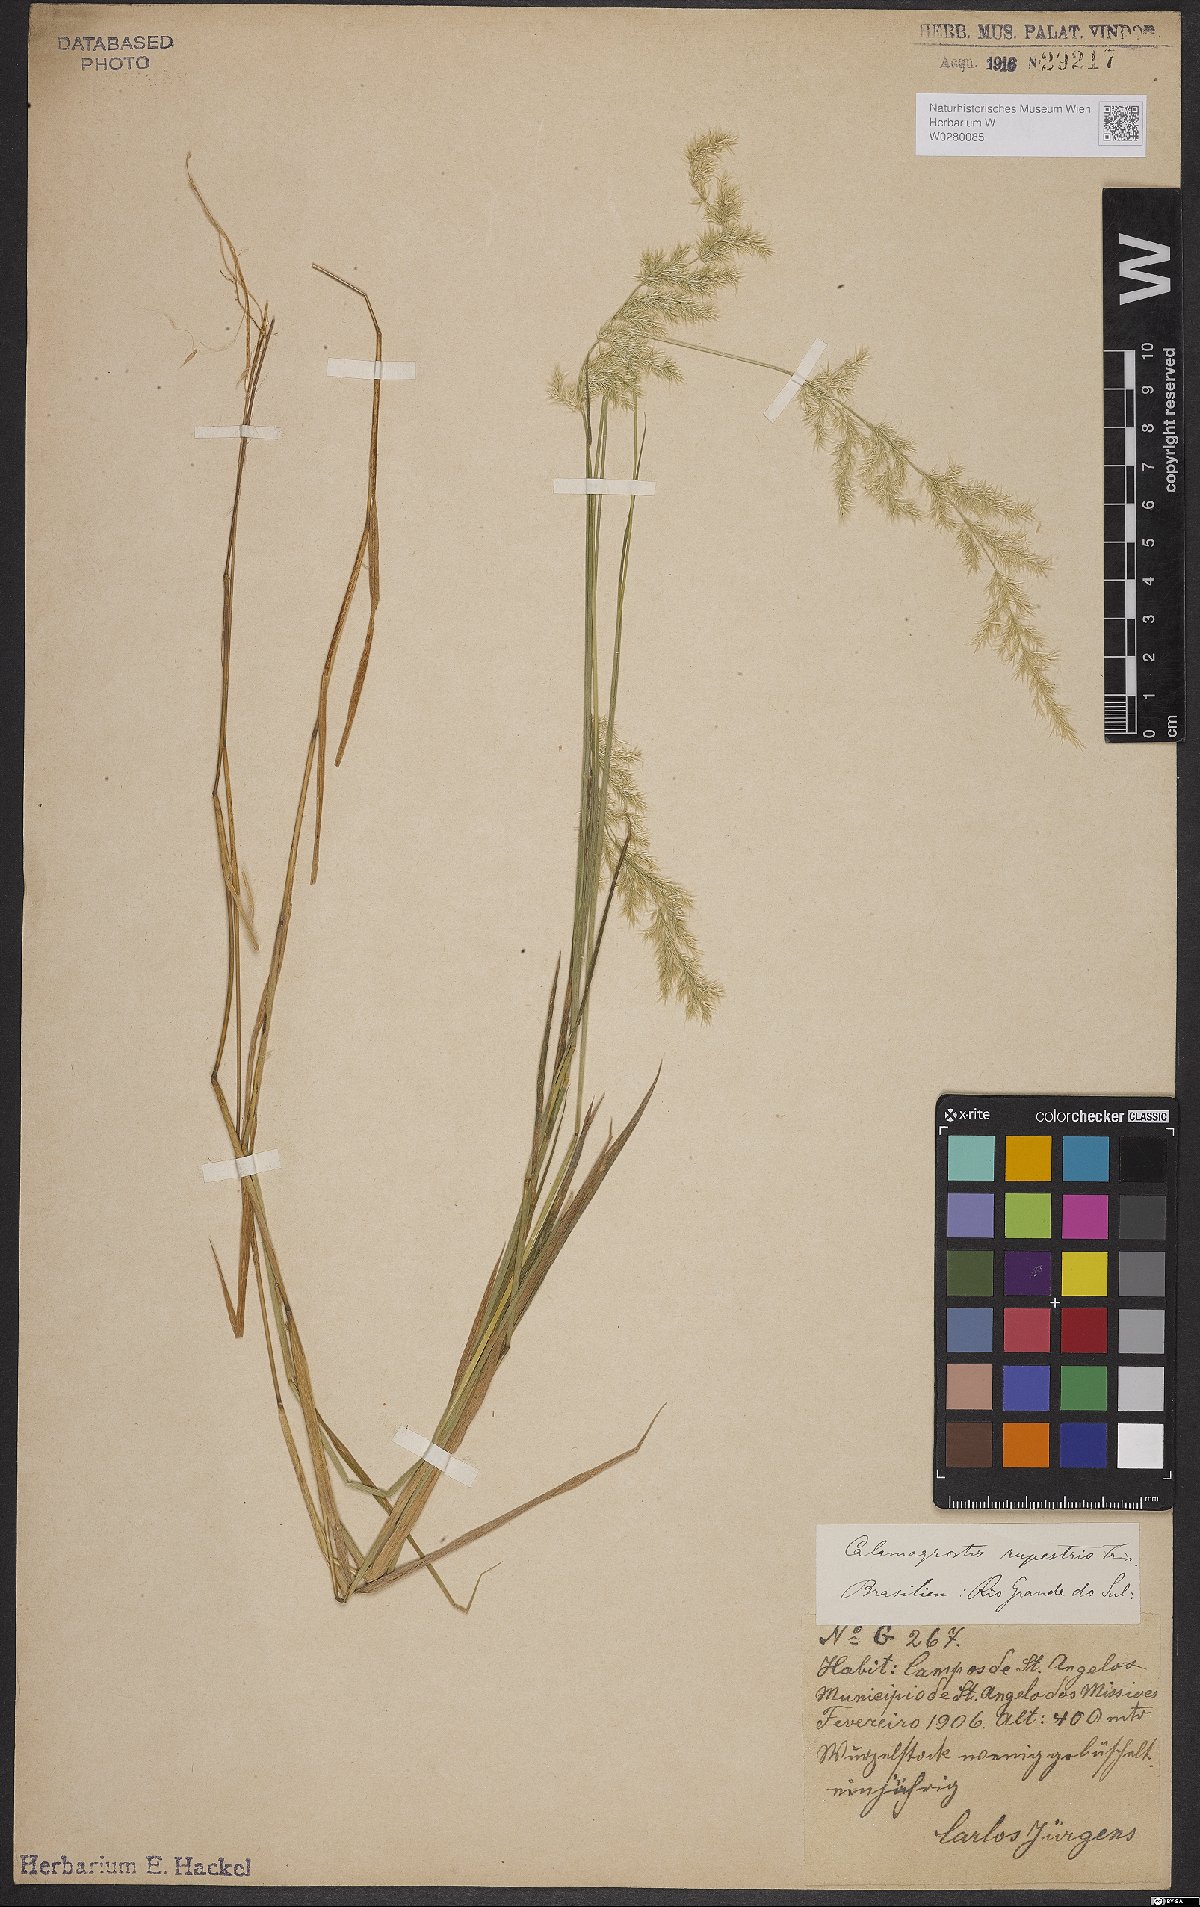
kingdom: Plantae
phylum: Tracheophyta
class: Liliopsida
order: Poales
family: Poaceae
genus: Cinnagrostis
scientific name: Cinnagrostis rupestris
